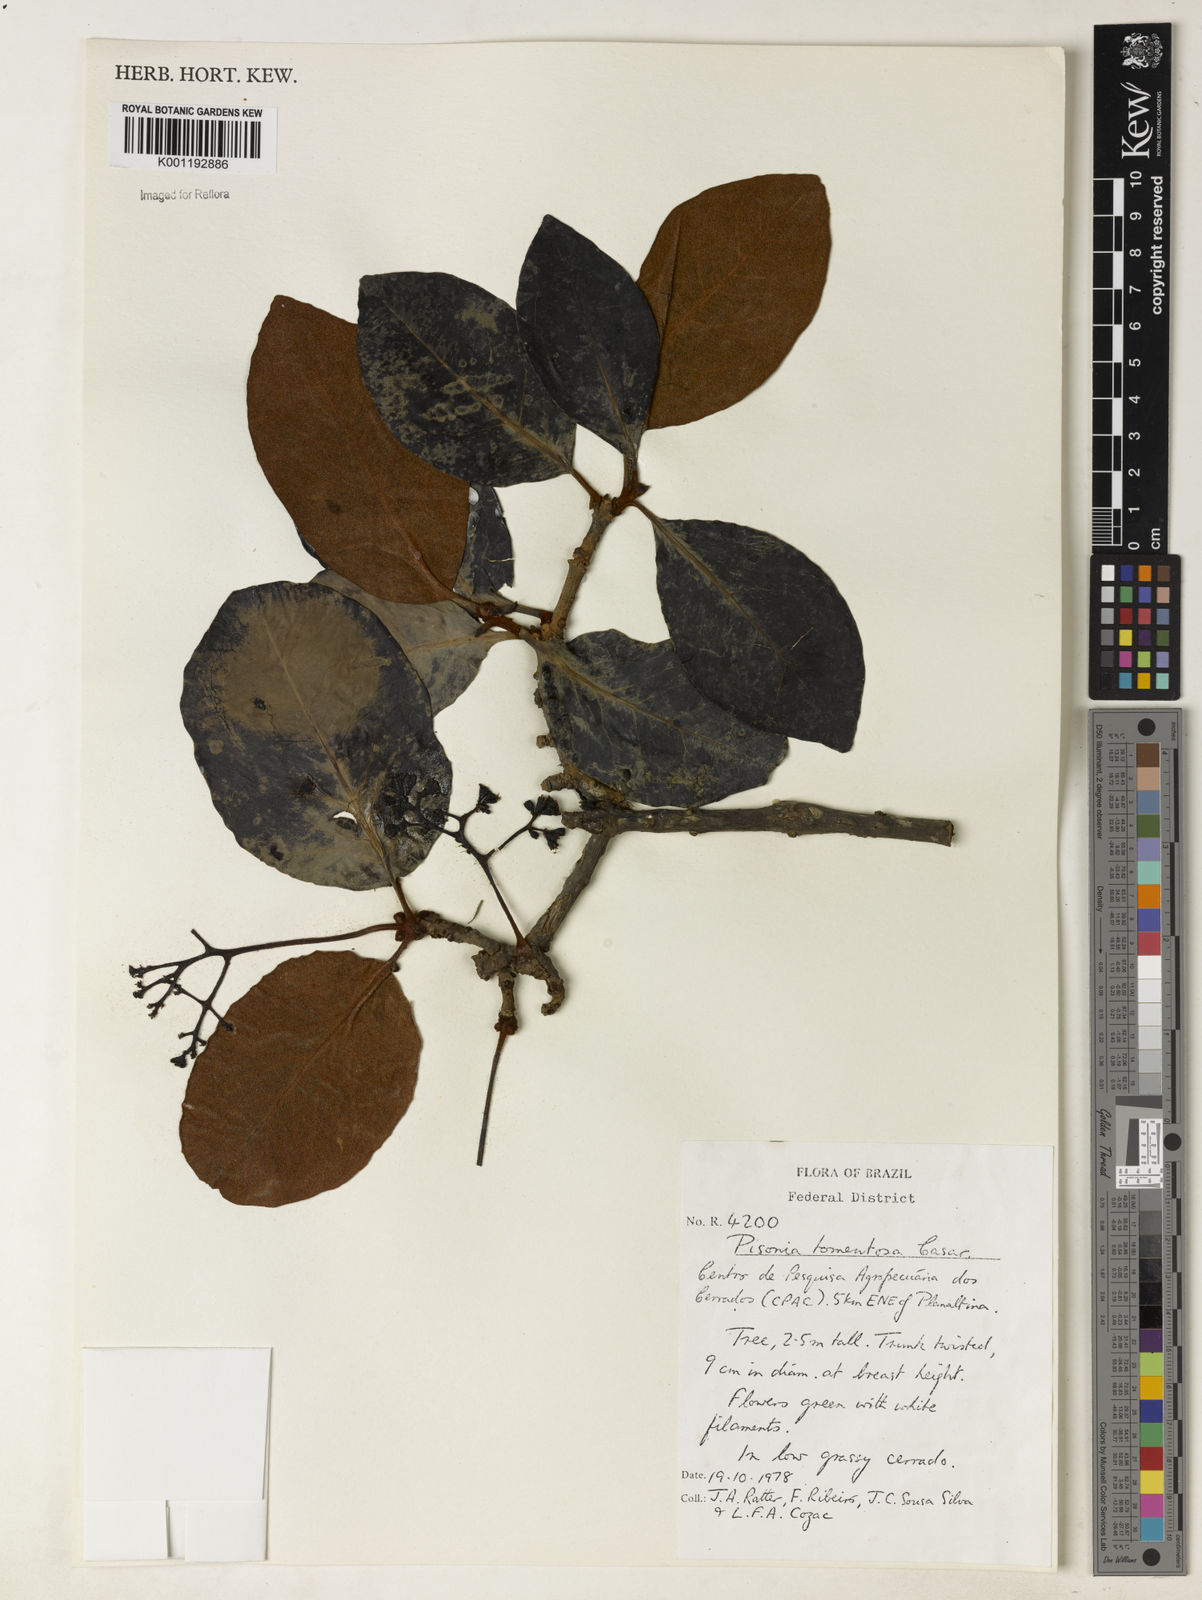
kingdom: Plantae
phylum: Tracheophyta
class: Magnoliopsida
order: Caryophyllales
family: Nyctaginaceae
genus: Guapira
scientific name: Guapira noxia
